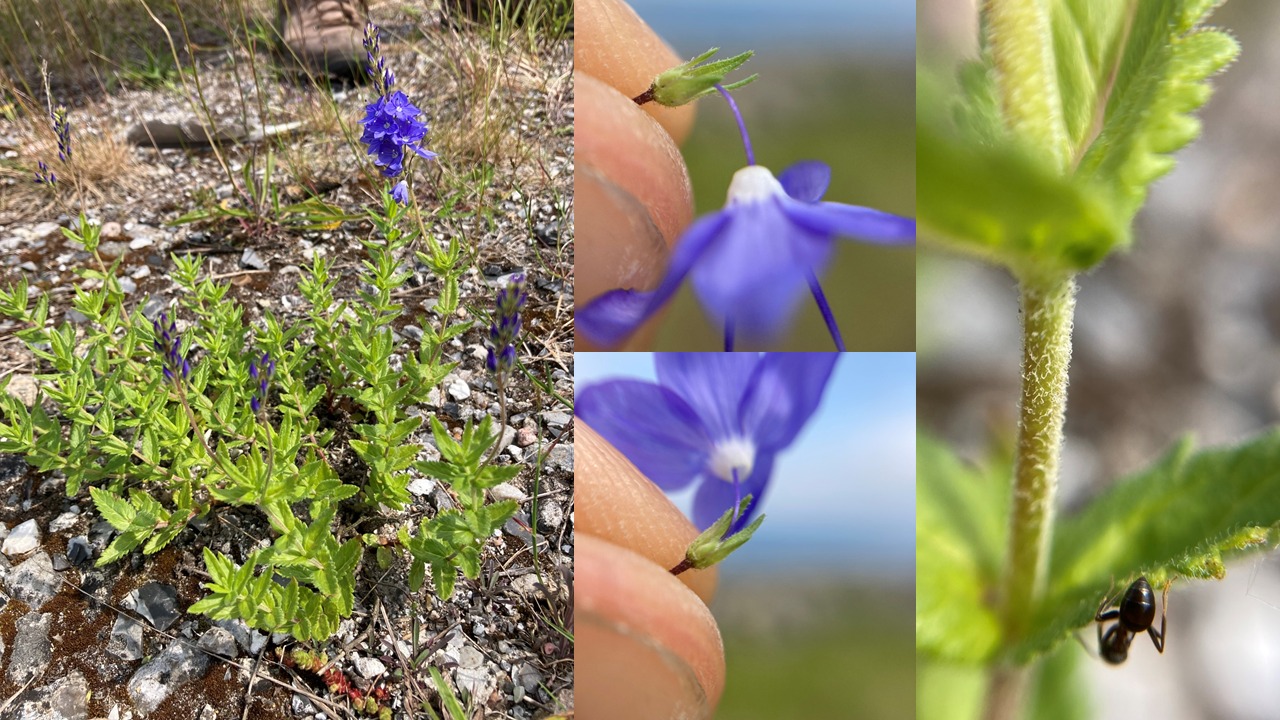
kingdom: Plantae
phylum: Tracheophyta
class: Magnoliopsida
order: Lamiales
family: Plantaginaceae
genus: Veronica
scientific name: Veronica teucrium
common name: Bredbladet ærenpris
